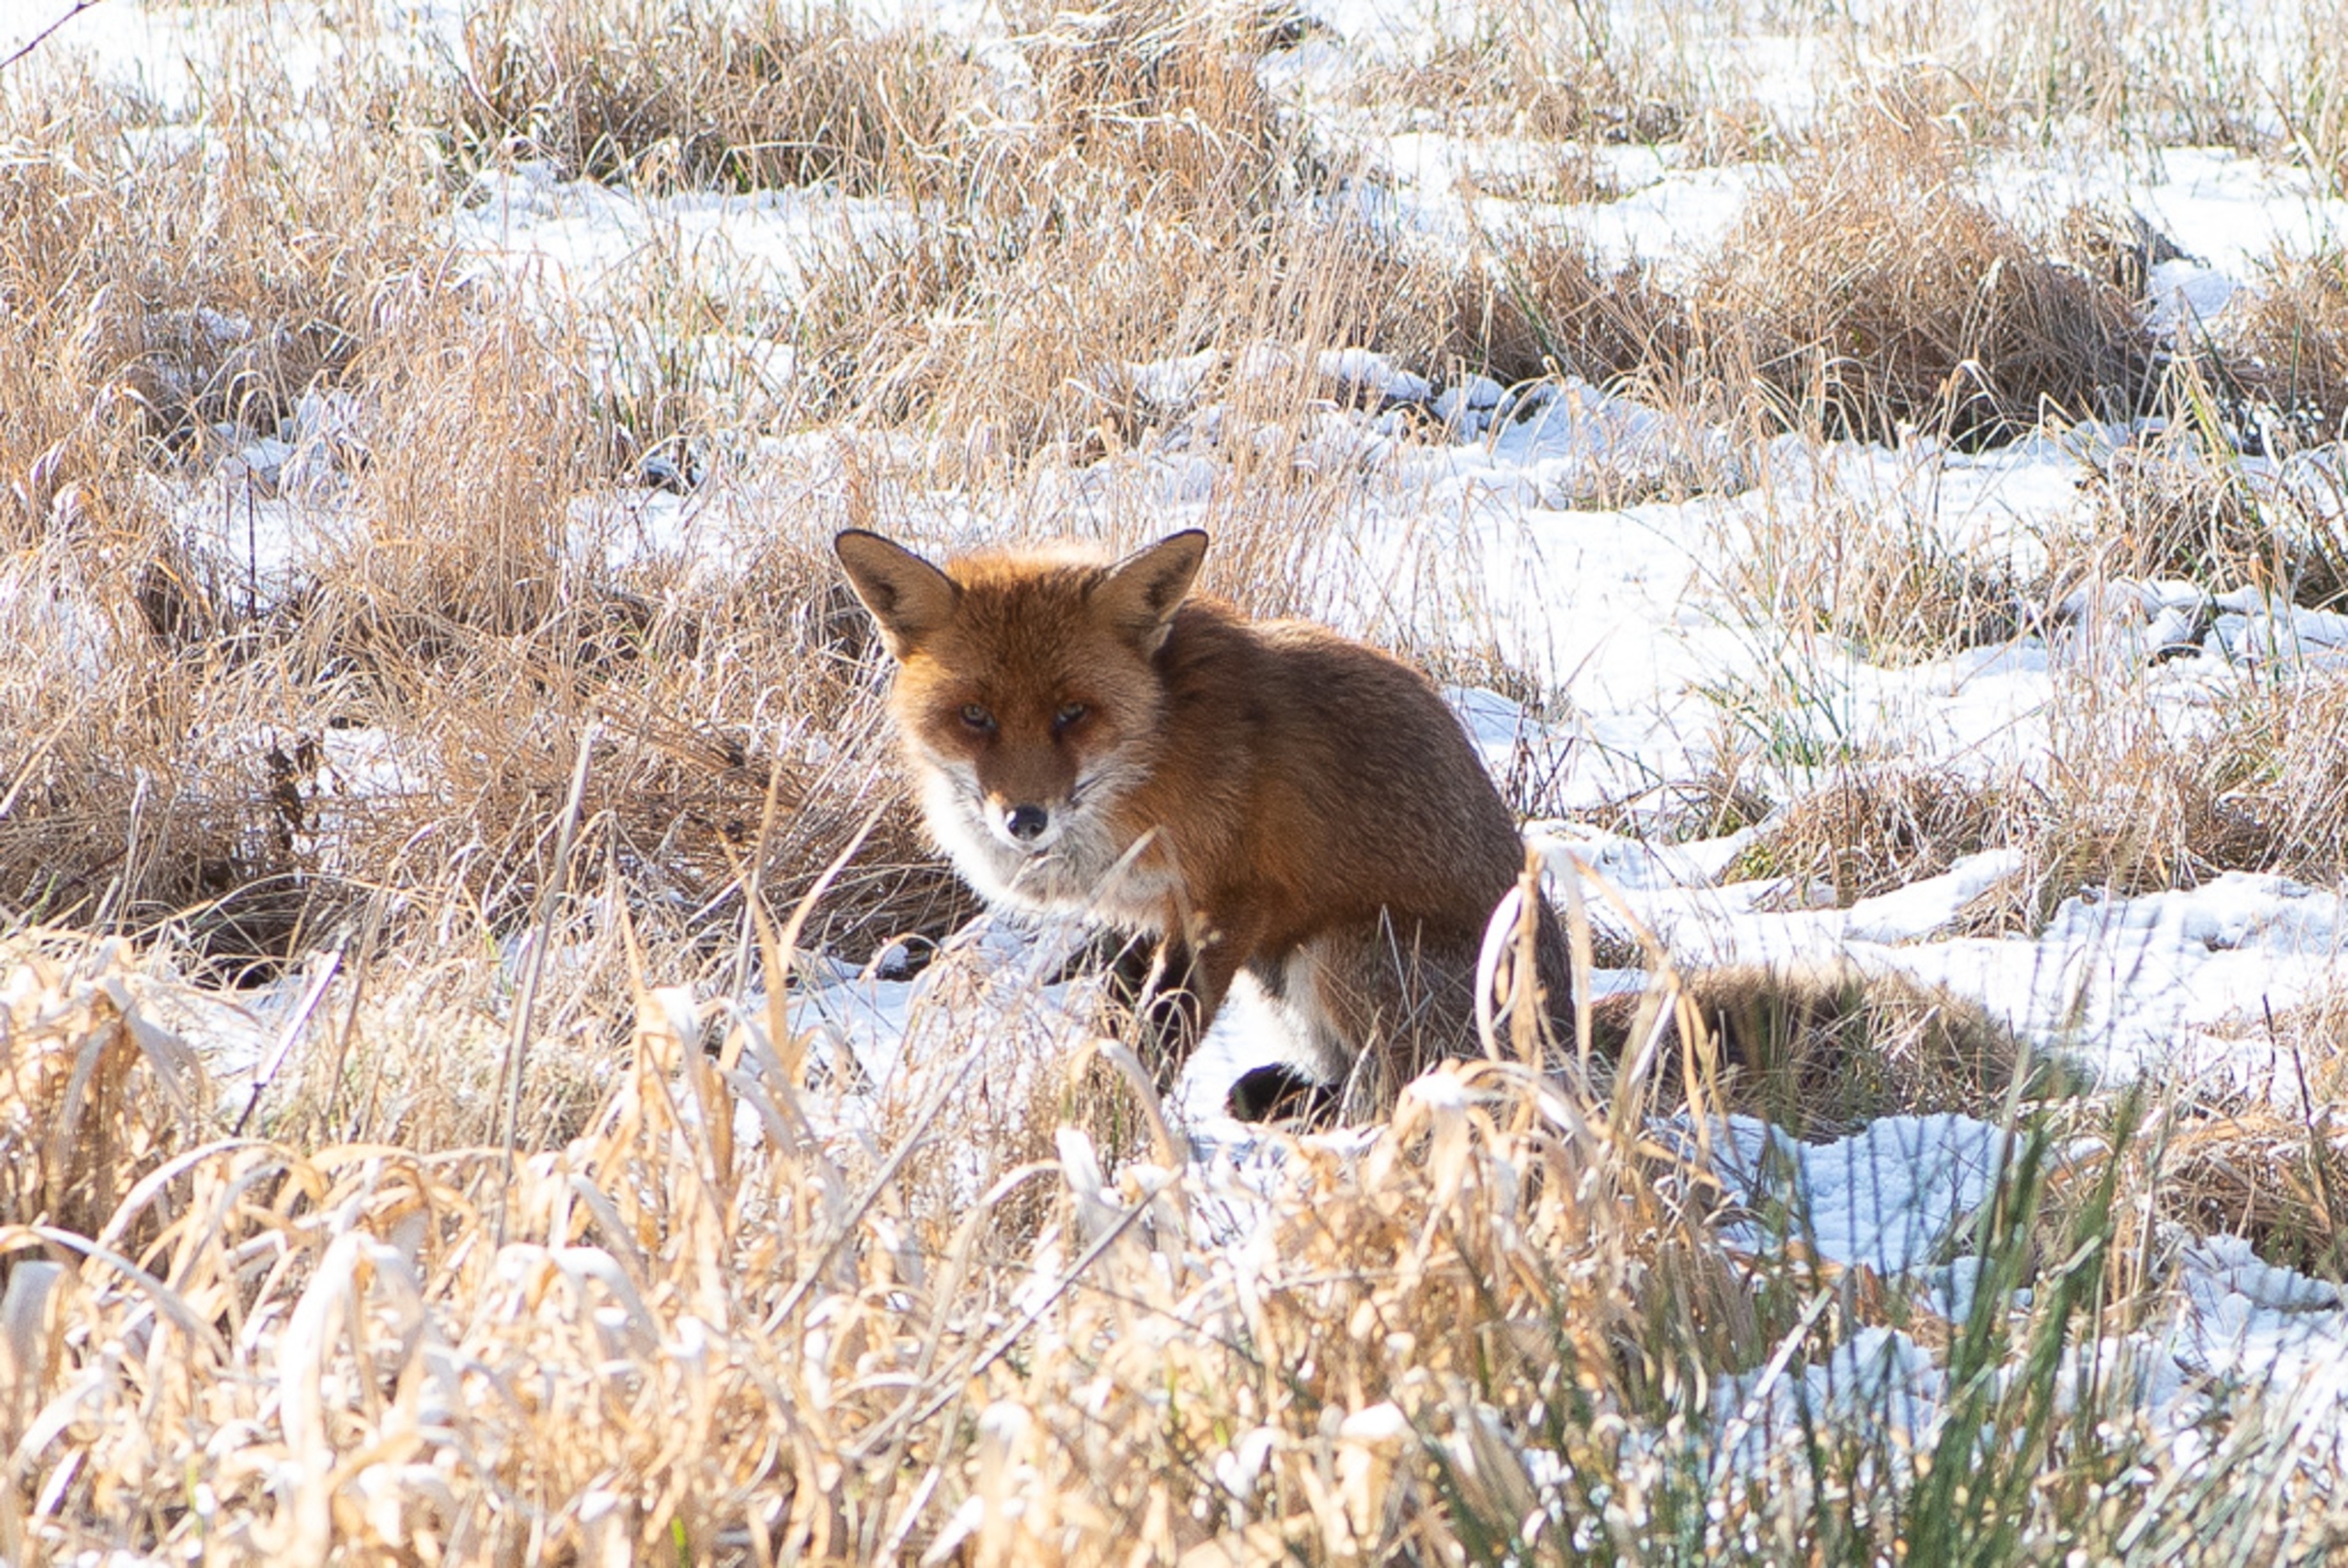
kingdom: Animalia
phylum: Chordata
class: Mammalia
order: Carnivora
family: Canidae
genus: Vulpes
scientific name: Vulpes vulpes
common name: Ræv
